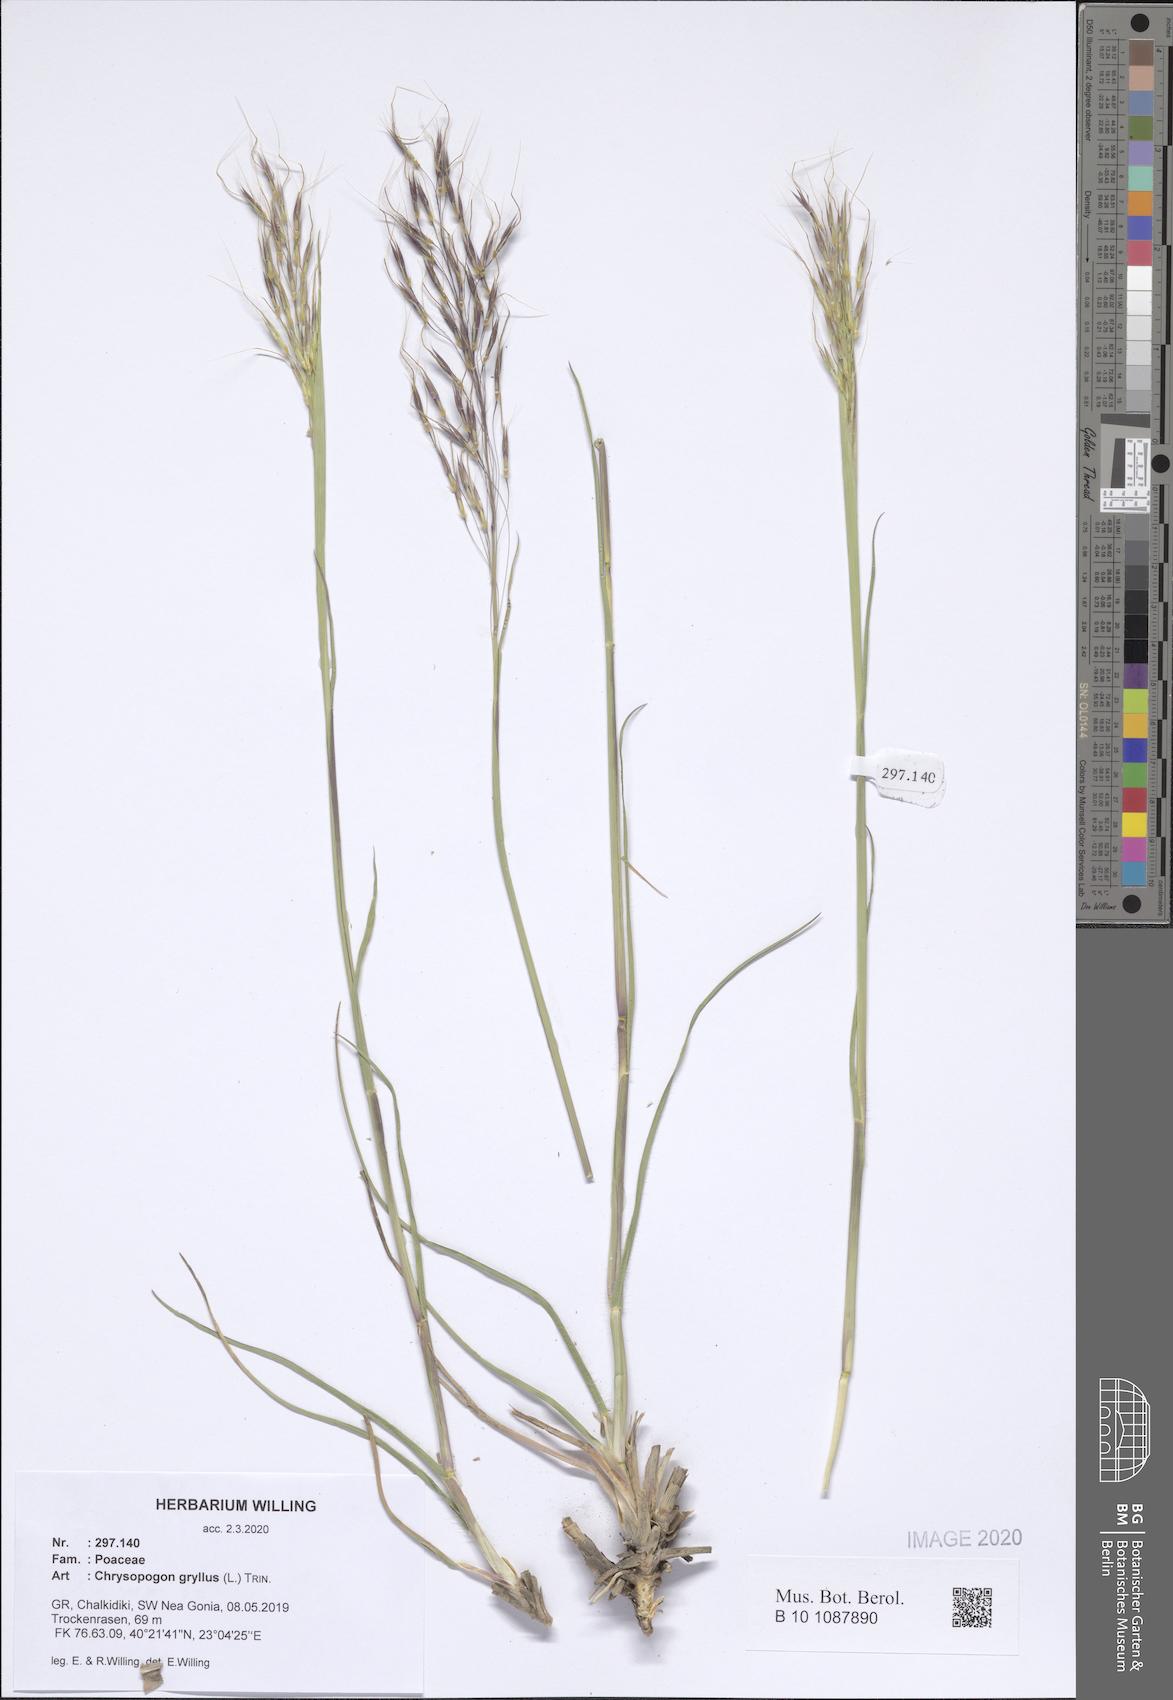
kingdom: Plantae
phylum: Tracheophyta
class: Liliopsida
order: Poales
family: Poaceae
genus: Chrysopogon
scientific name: Chrysopogon gryllus
